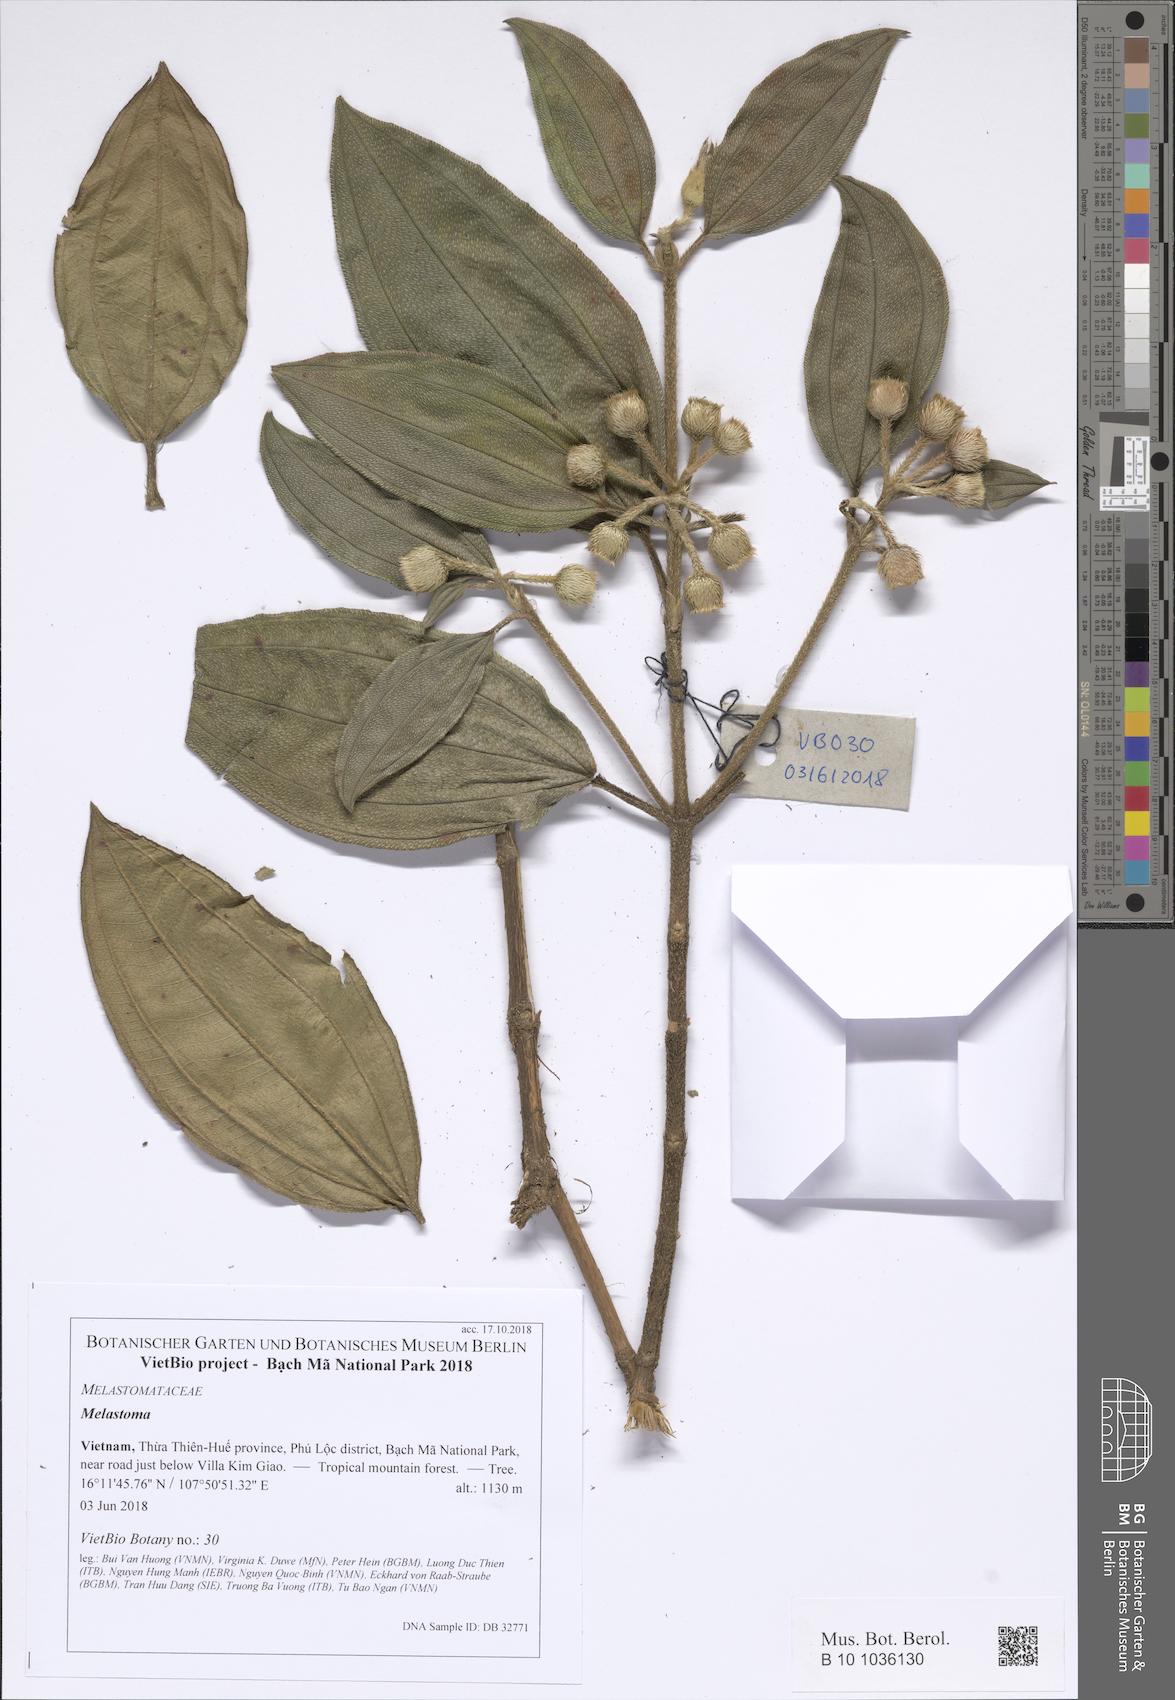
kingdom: Plantae
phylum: Tracheophyta
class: Magnoliopsida
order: Myrtales
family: Melastomataceae
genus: Melastoma
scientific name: Melastoma
